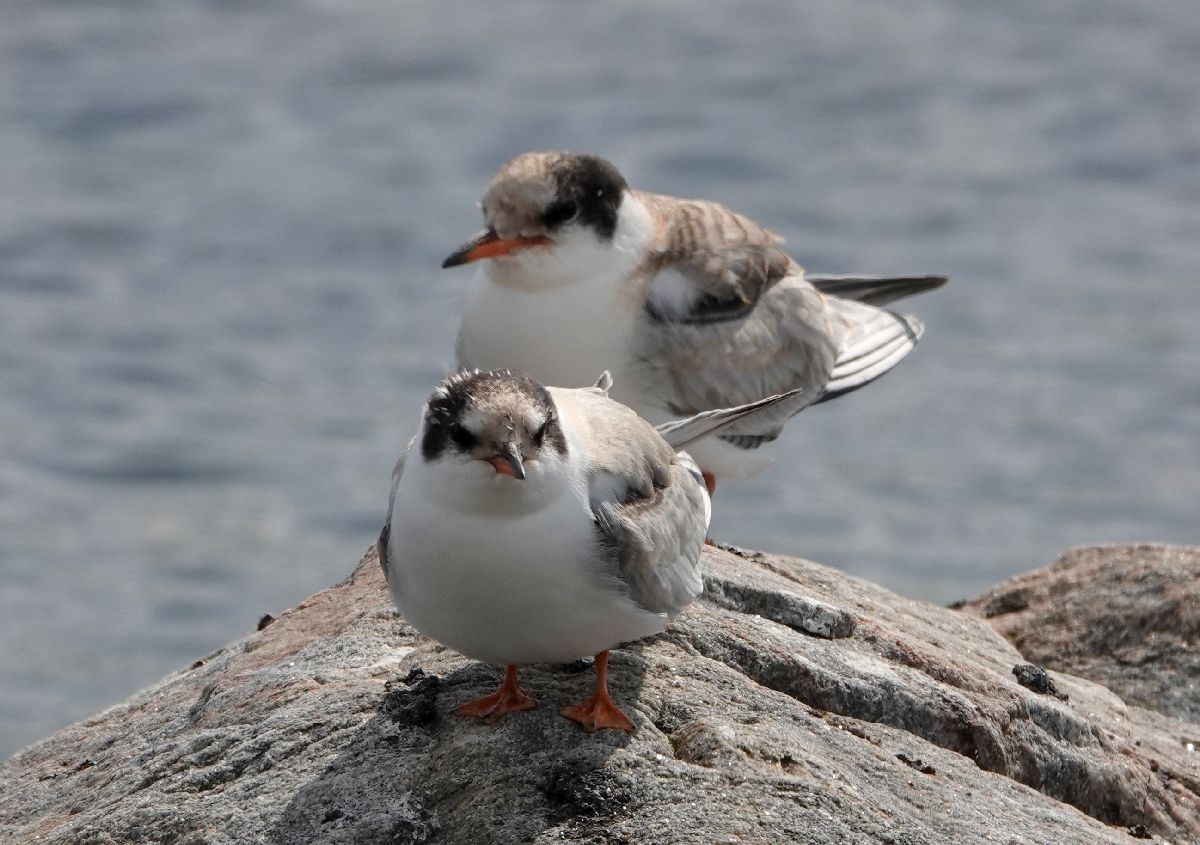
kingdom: Animalia
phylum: Chordata
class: Aves
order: Charadriiformes
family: Laridae
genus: Sterna
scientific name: Sterna hirundo
